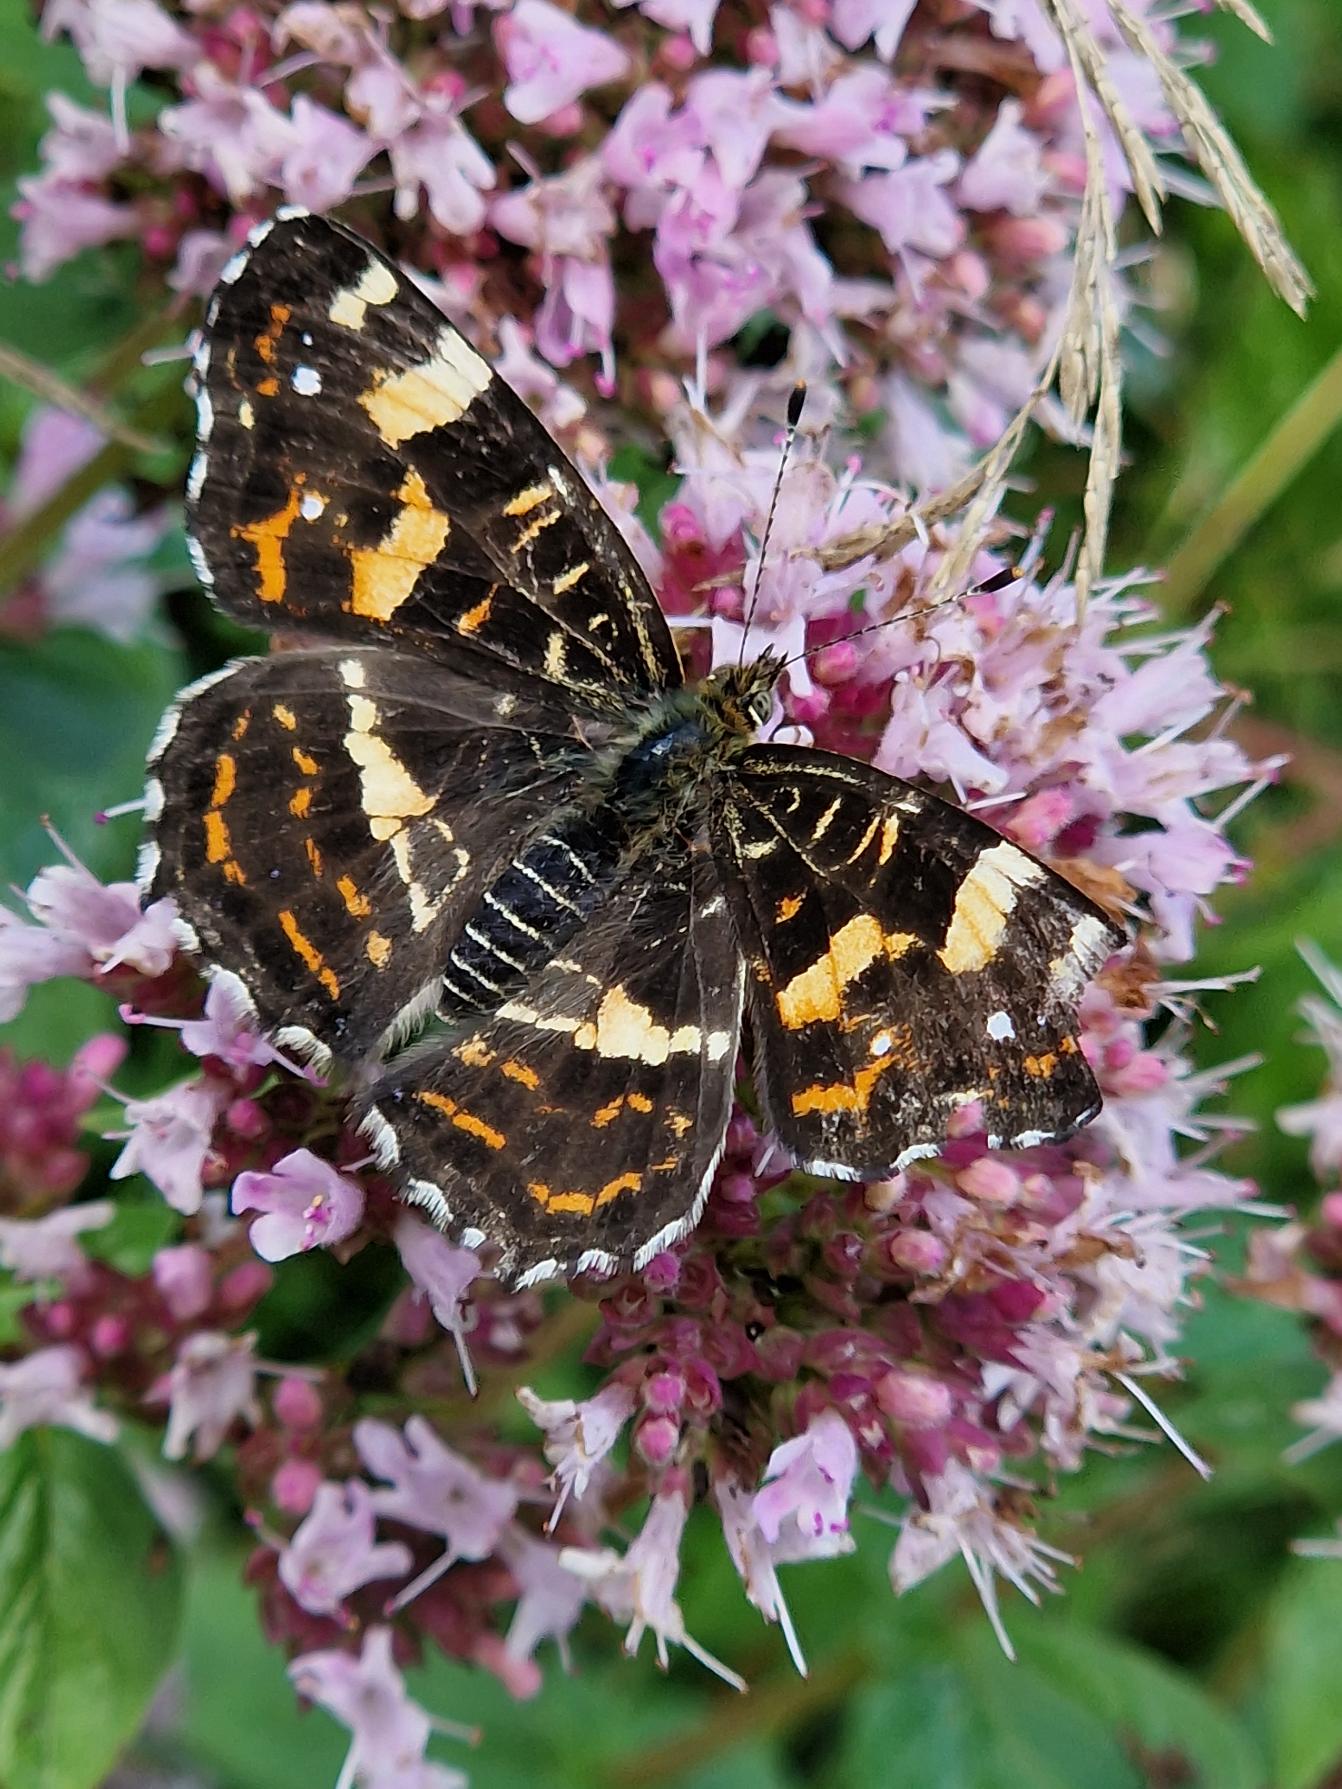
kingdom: Animalia
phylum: Arthropoda
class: Insecta
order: Lepidoptera
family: Nymphalidae
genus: Araschnia
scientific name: Araschnia levana
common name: Nældesommerfugl
